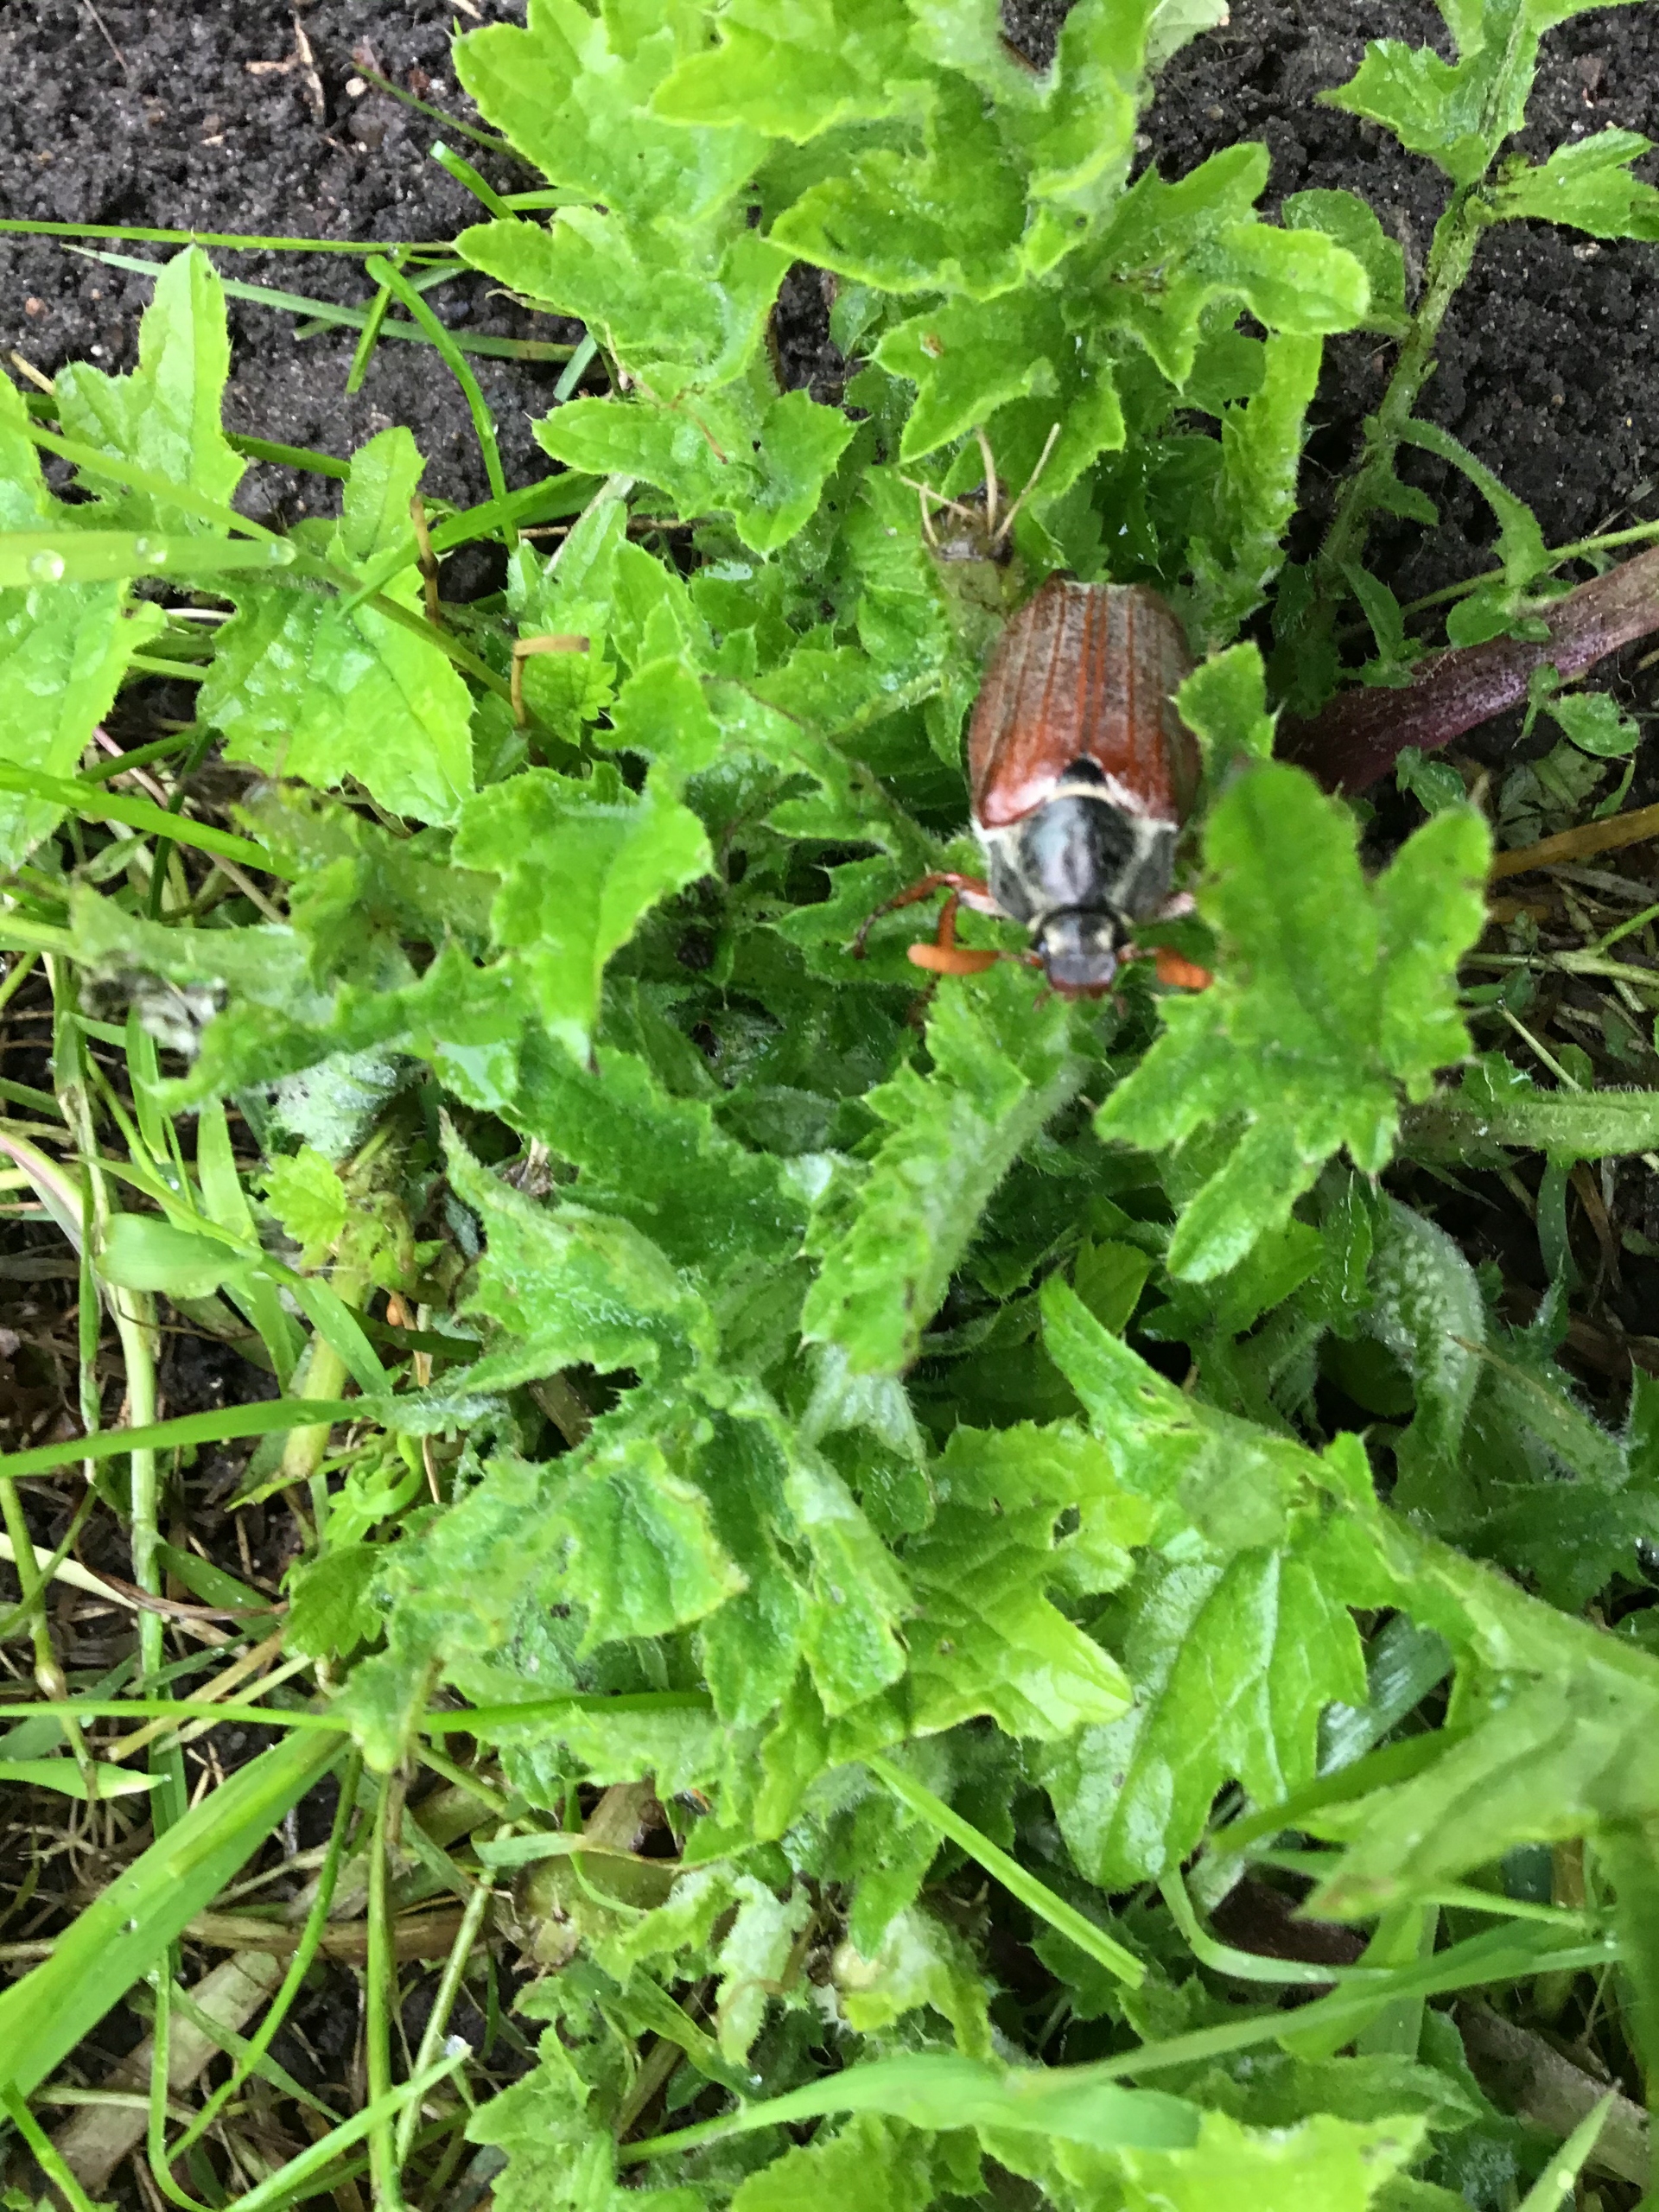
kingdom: Animalia
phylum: Arthropoda
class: Insecta
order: Coleoptera
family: Scarabaeidae
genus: Melolontha
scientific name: Melolontha melolontha
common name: Almindelig oldenborre
